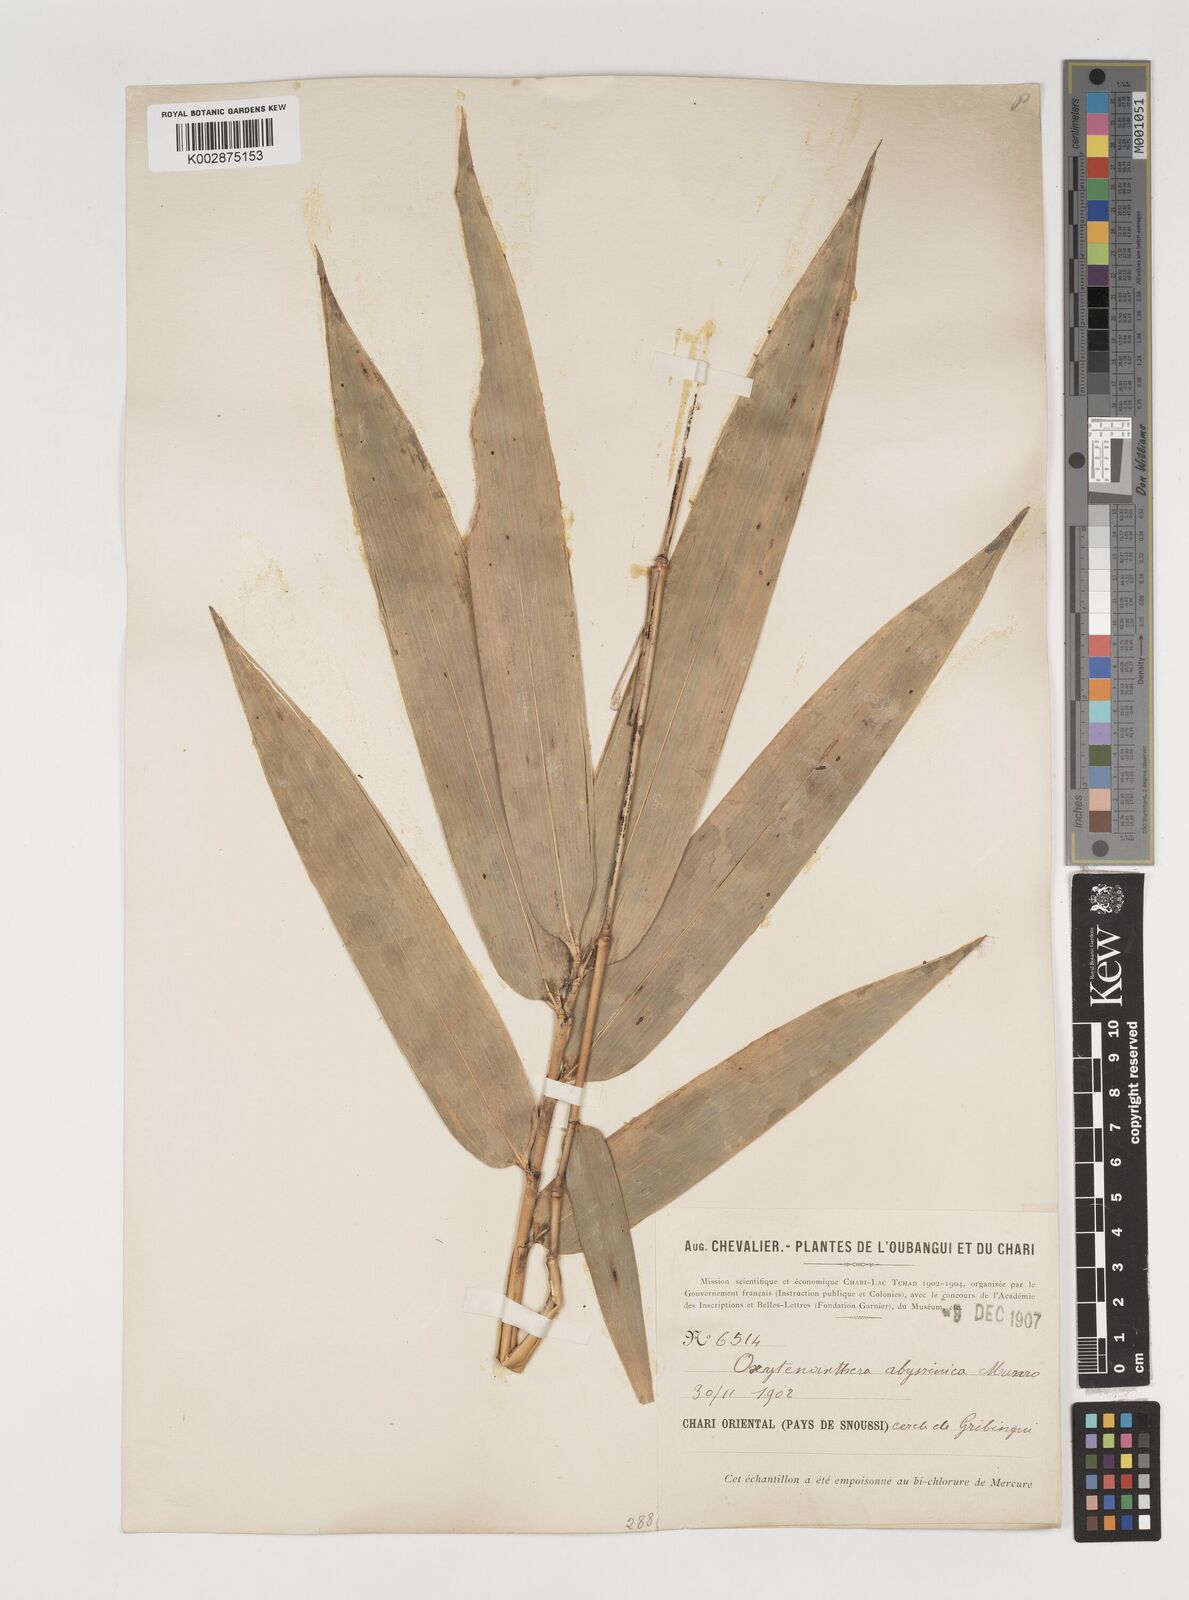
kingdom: Plantae
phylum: Tracheophyta
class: Liliopsida
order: Poales
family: Poaceae
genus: Oxytenanthera
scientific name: Oxytenanthera abyssinica
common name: Wine bamboo
